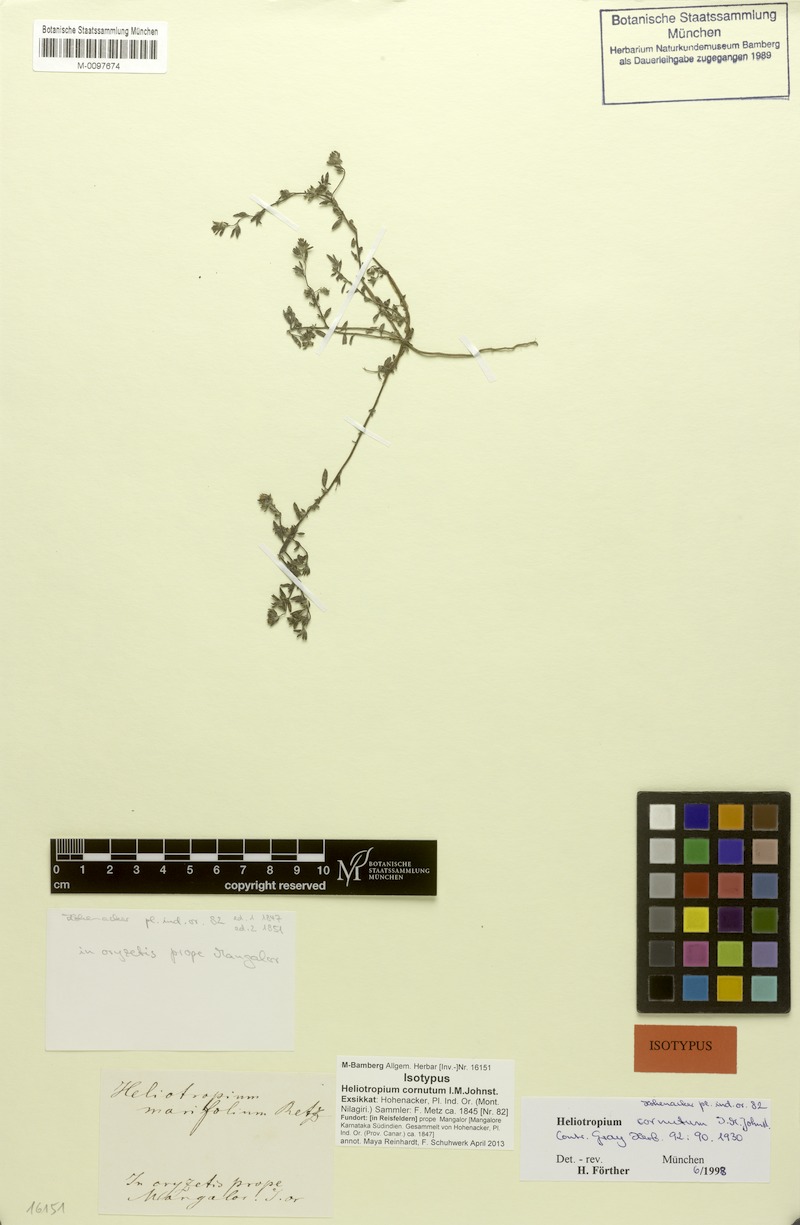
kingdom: Plantae
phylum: Tracheophyta
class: Magnoliopsida
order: Boraginales
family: Heliotropiaceae
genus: Euploca
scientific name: Euploca cornuta
